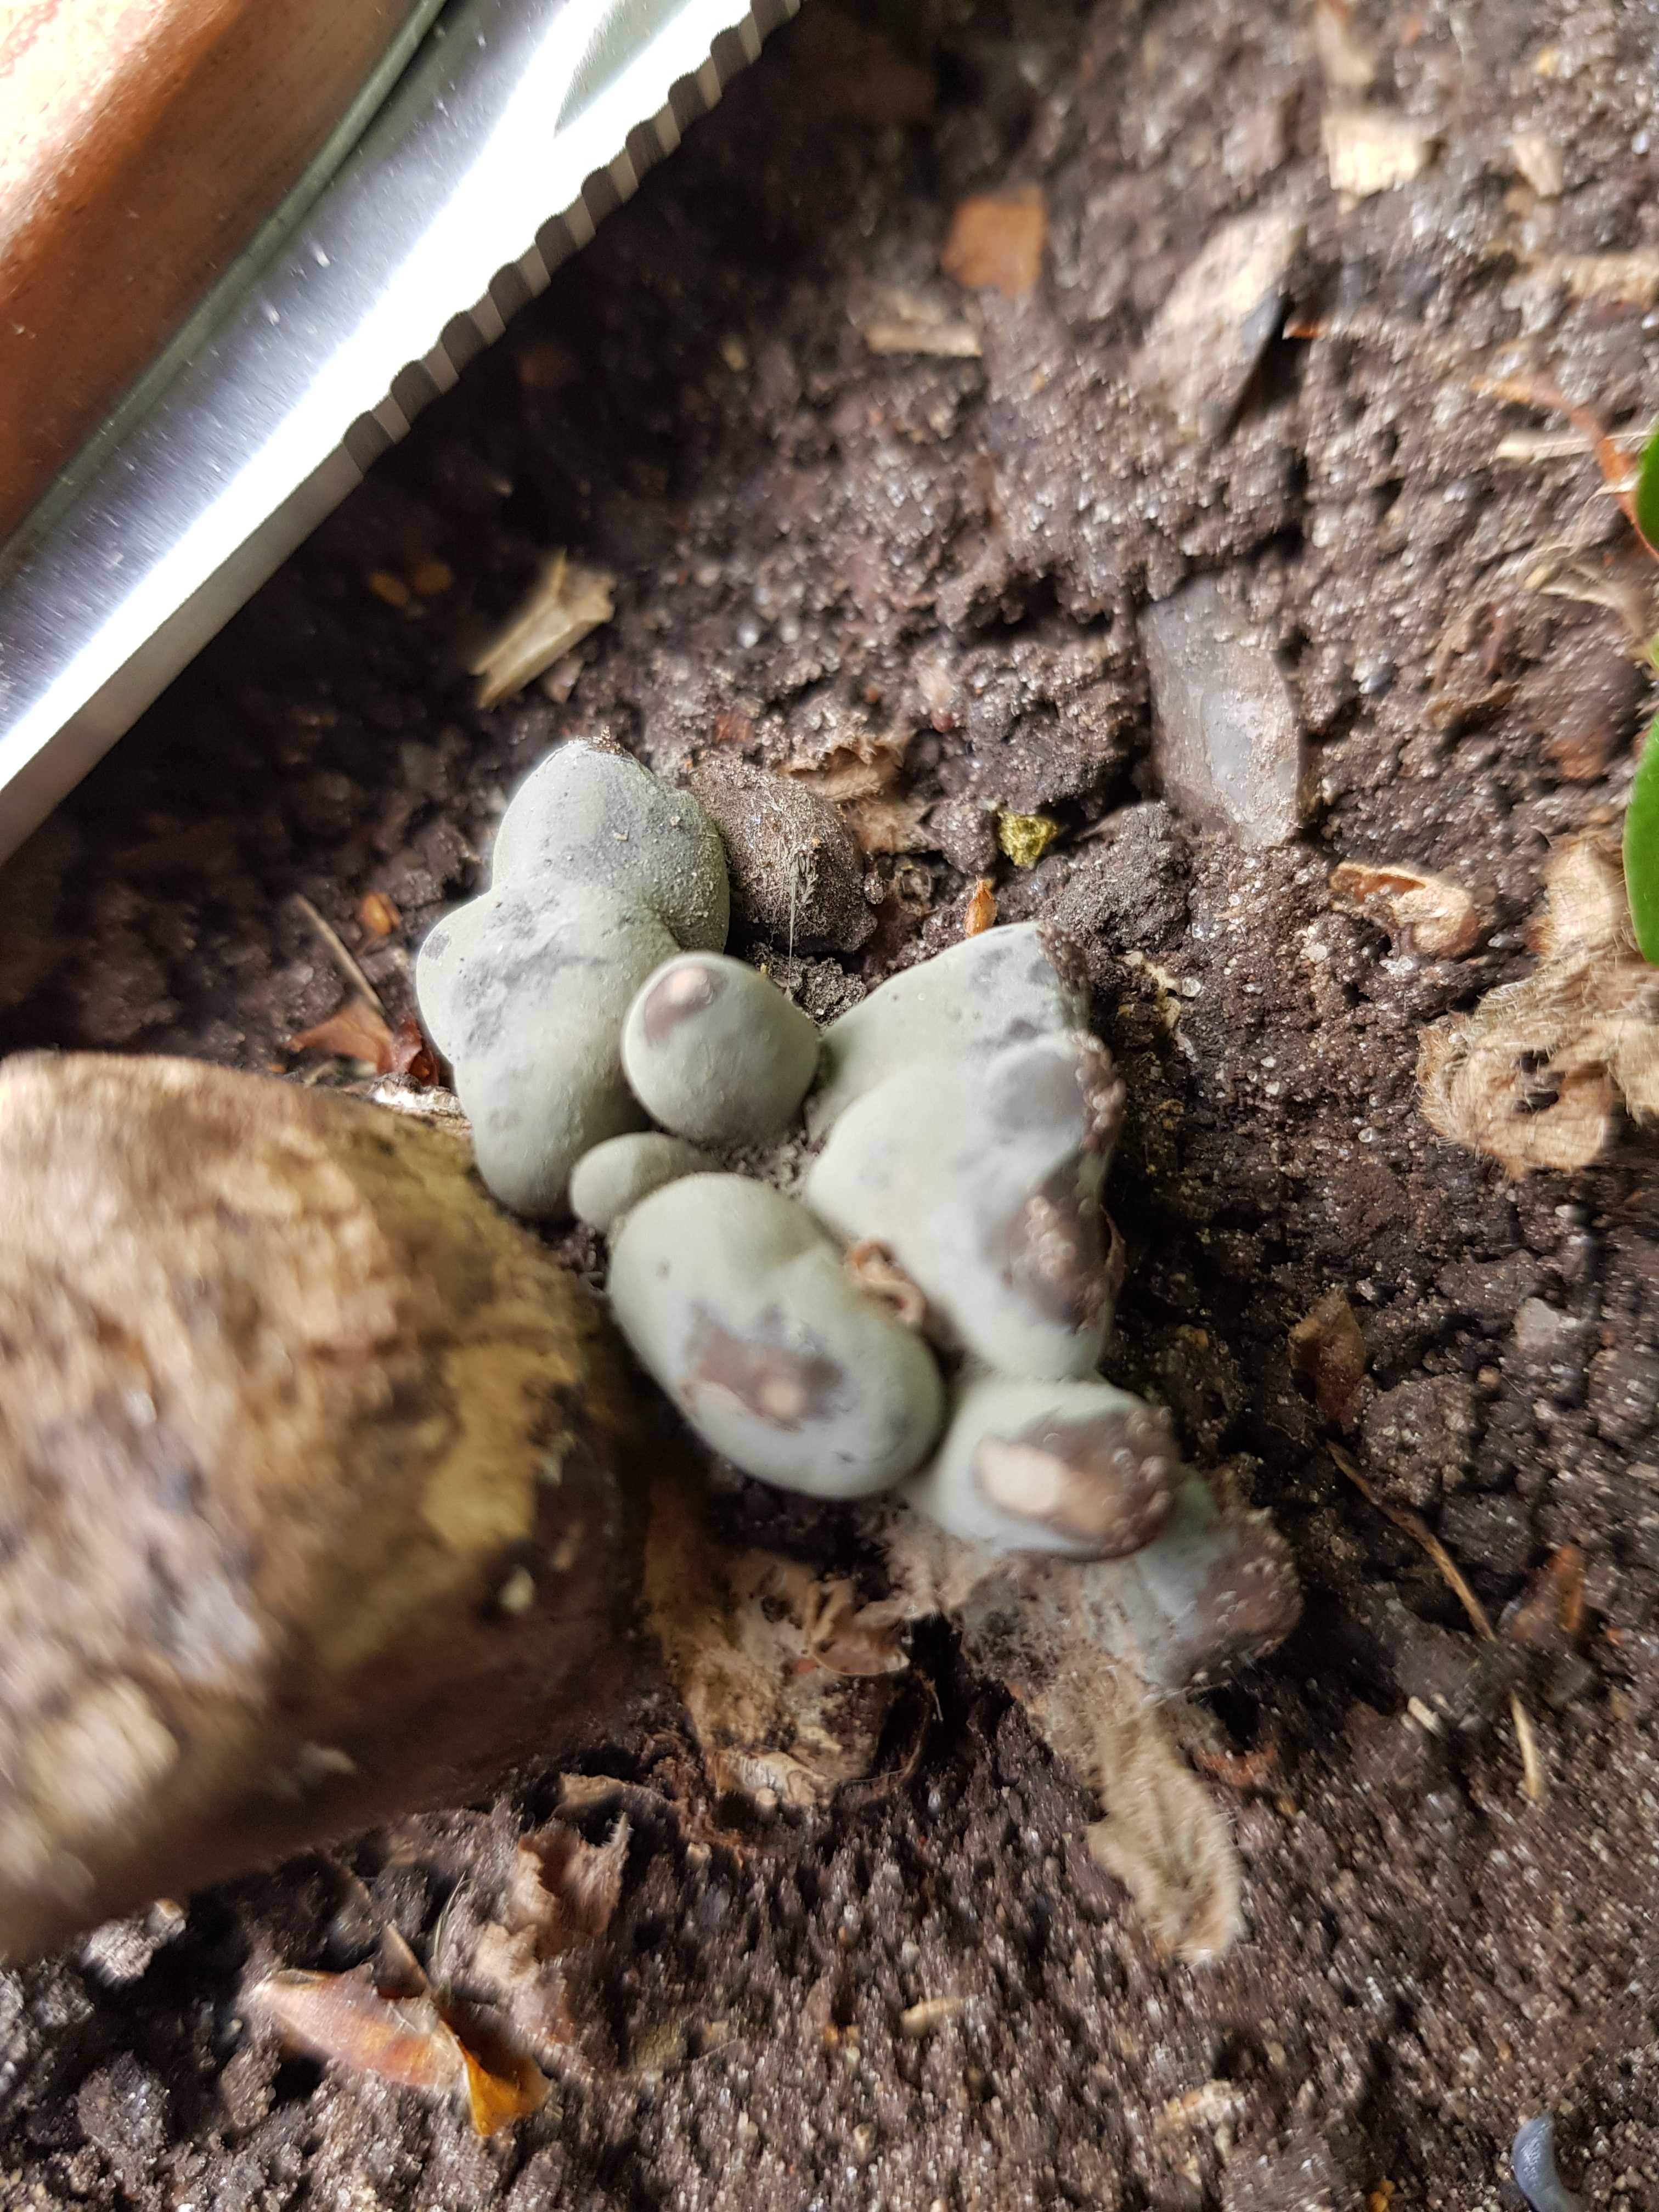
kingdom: Fungi
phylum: Ascomycota
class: Sordariomycetes
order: Xylariales
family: Xylariaceae
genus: Xylaria
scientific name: Xylaria polymorpha
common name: kølle-stødsvamp
